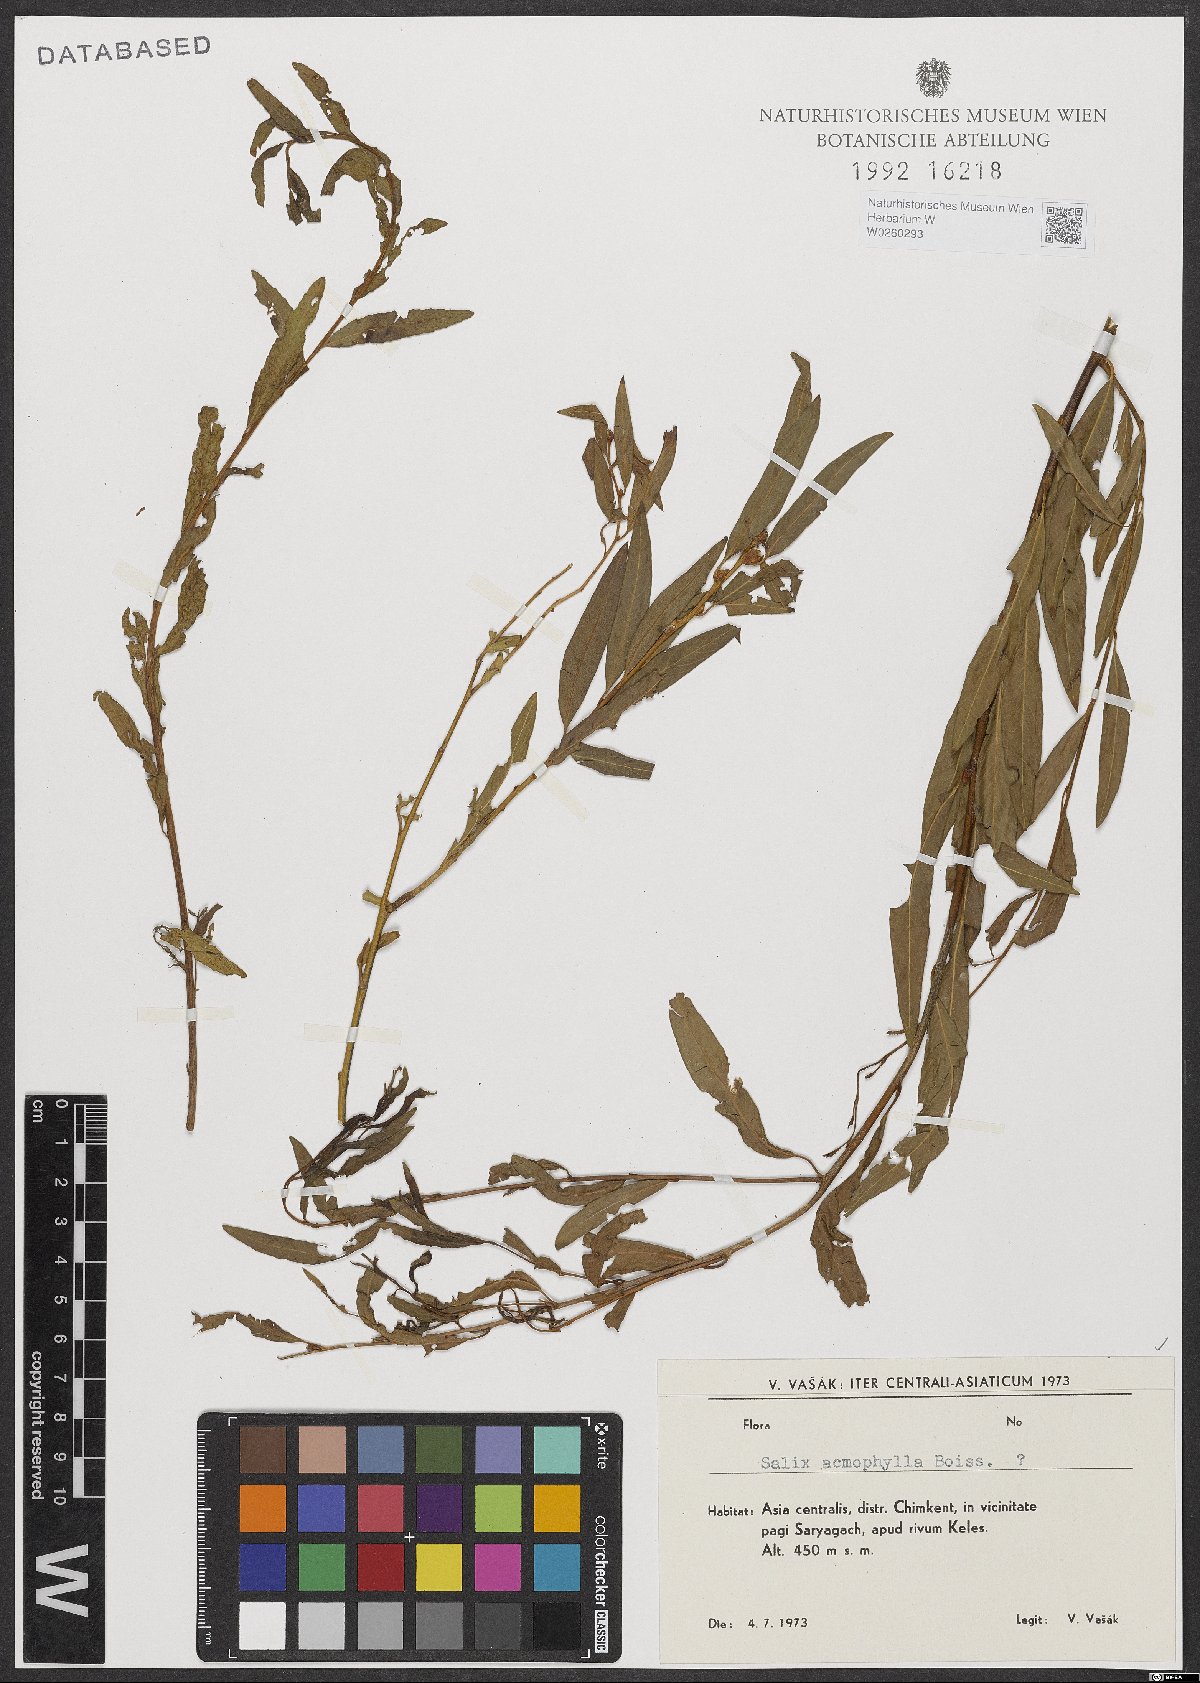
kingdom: Plantae
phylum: Tracheophyta
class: Magnoliopsida
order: Malpighiales
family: Salicaceae
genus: Salix
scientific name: Salix acmophylla
